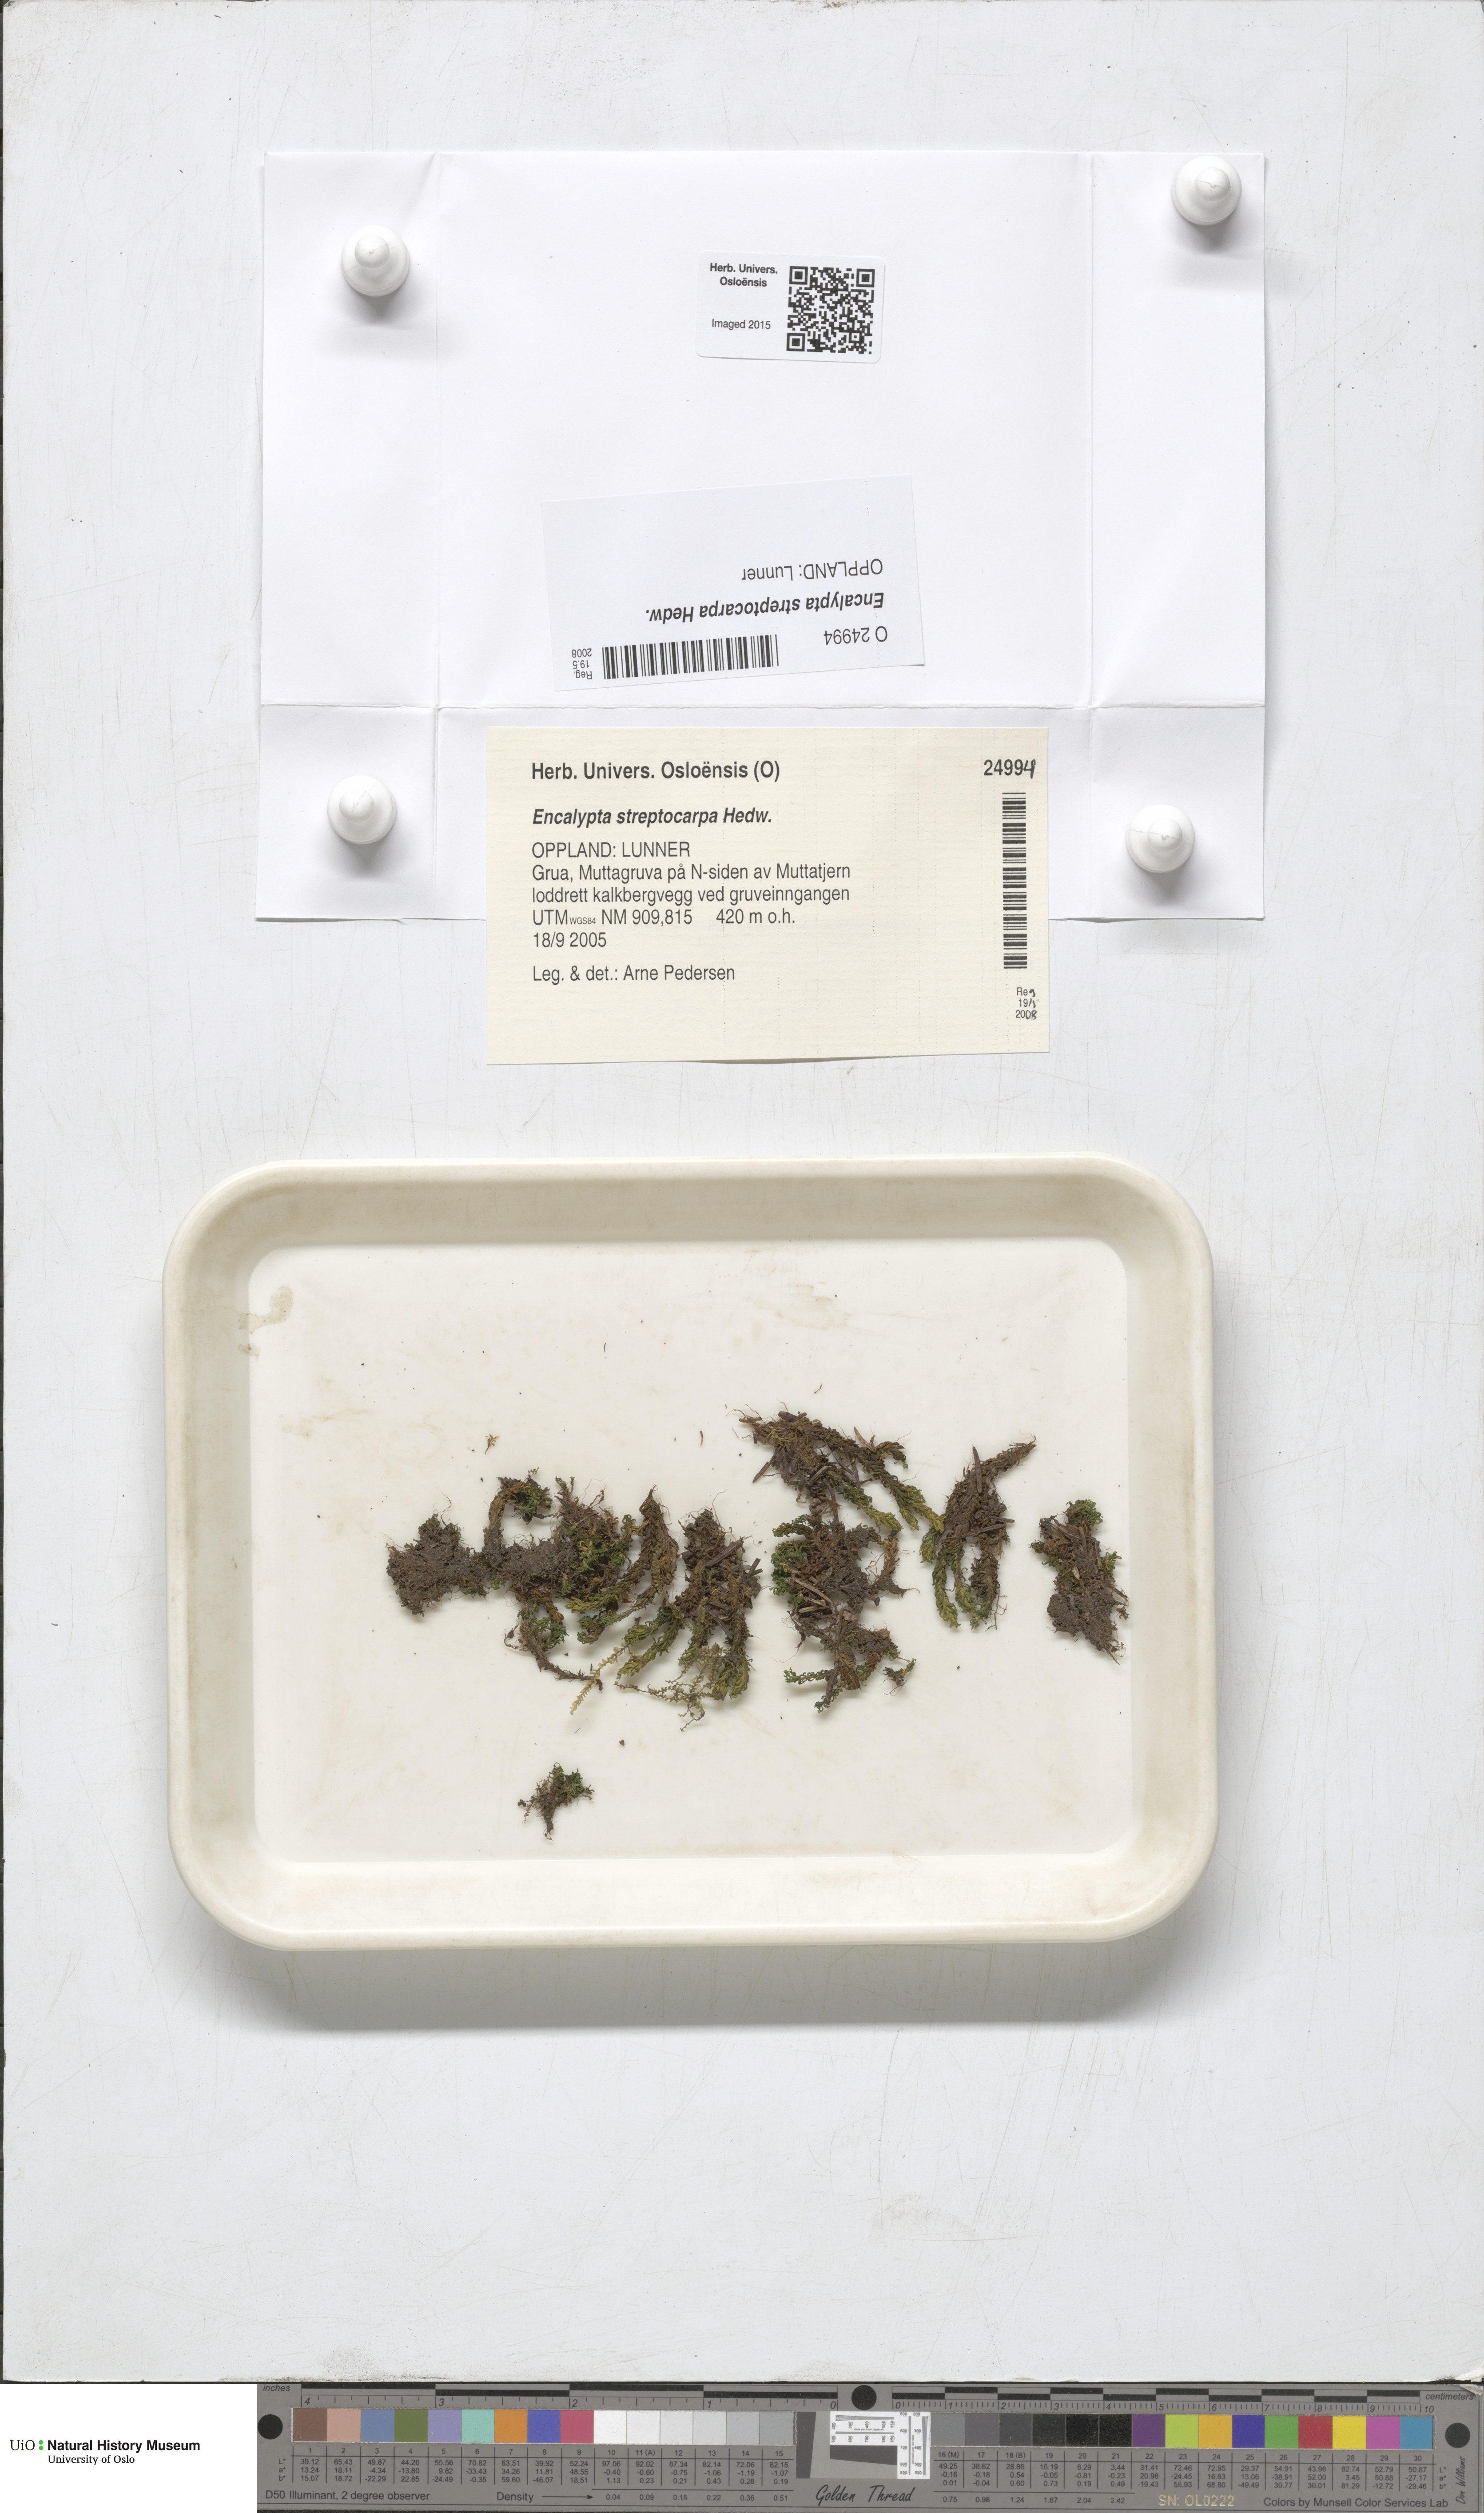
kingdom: Plantae
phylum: Bryophyta
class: Bryopsida
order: Encalyptales
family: Encalyptaceae
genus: Encalypta
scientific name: Encalypta streptocarpa
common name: Spiral extinguisher-moss
